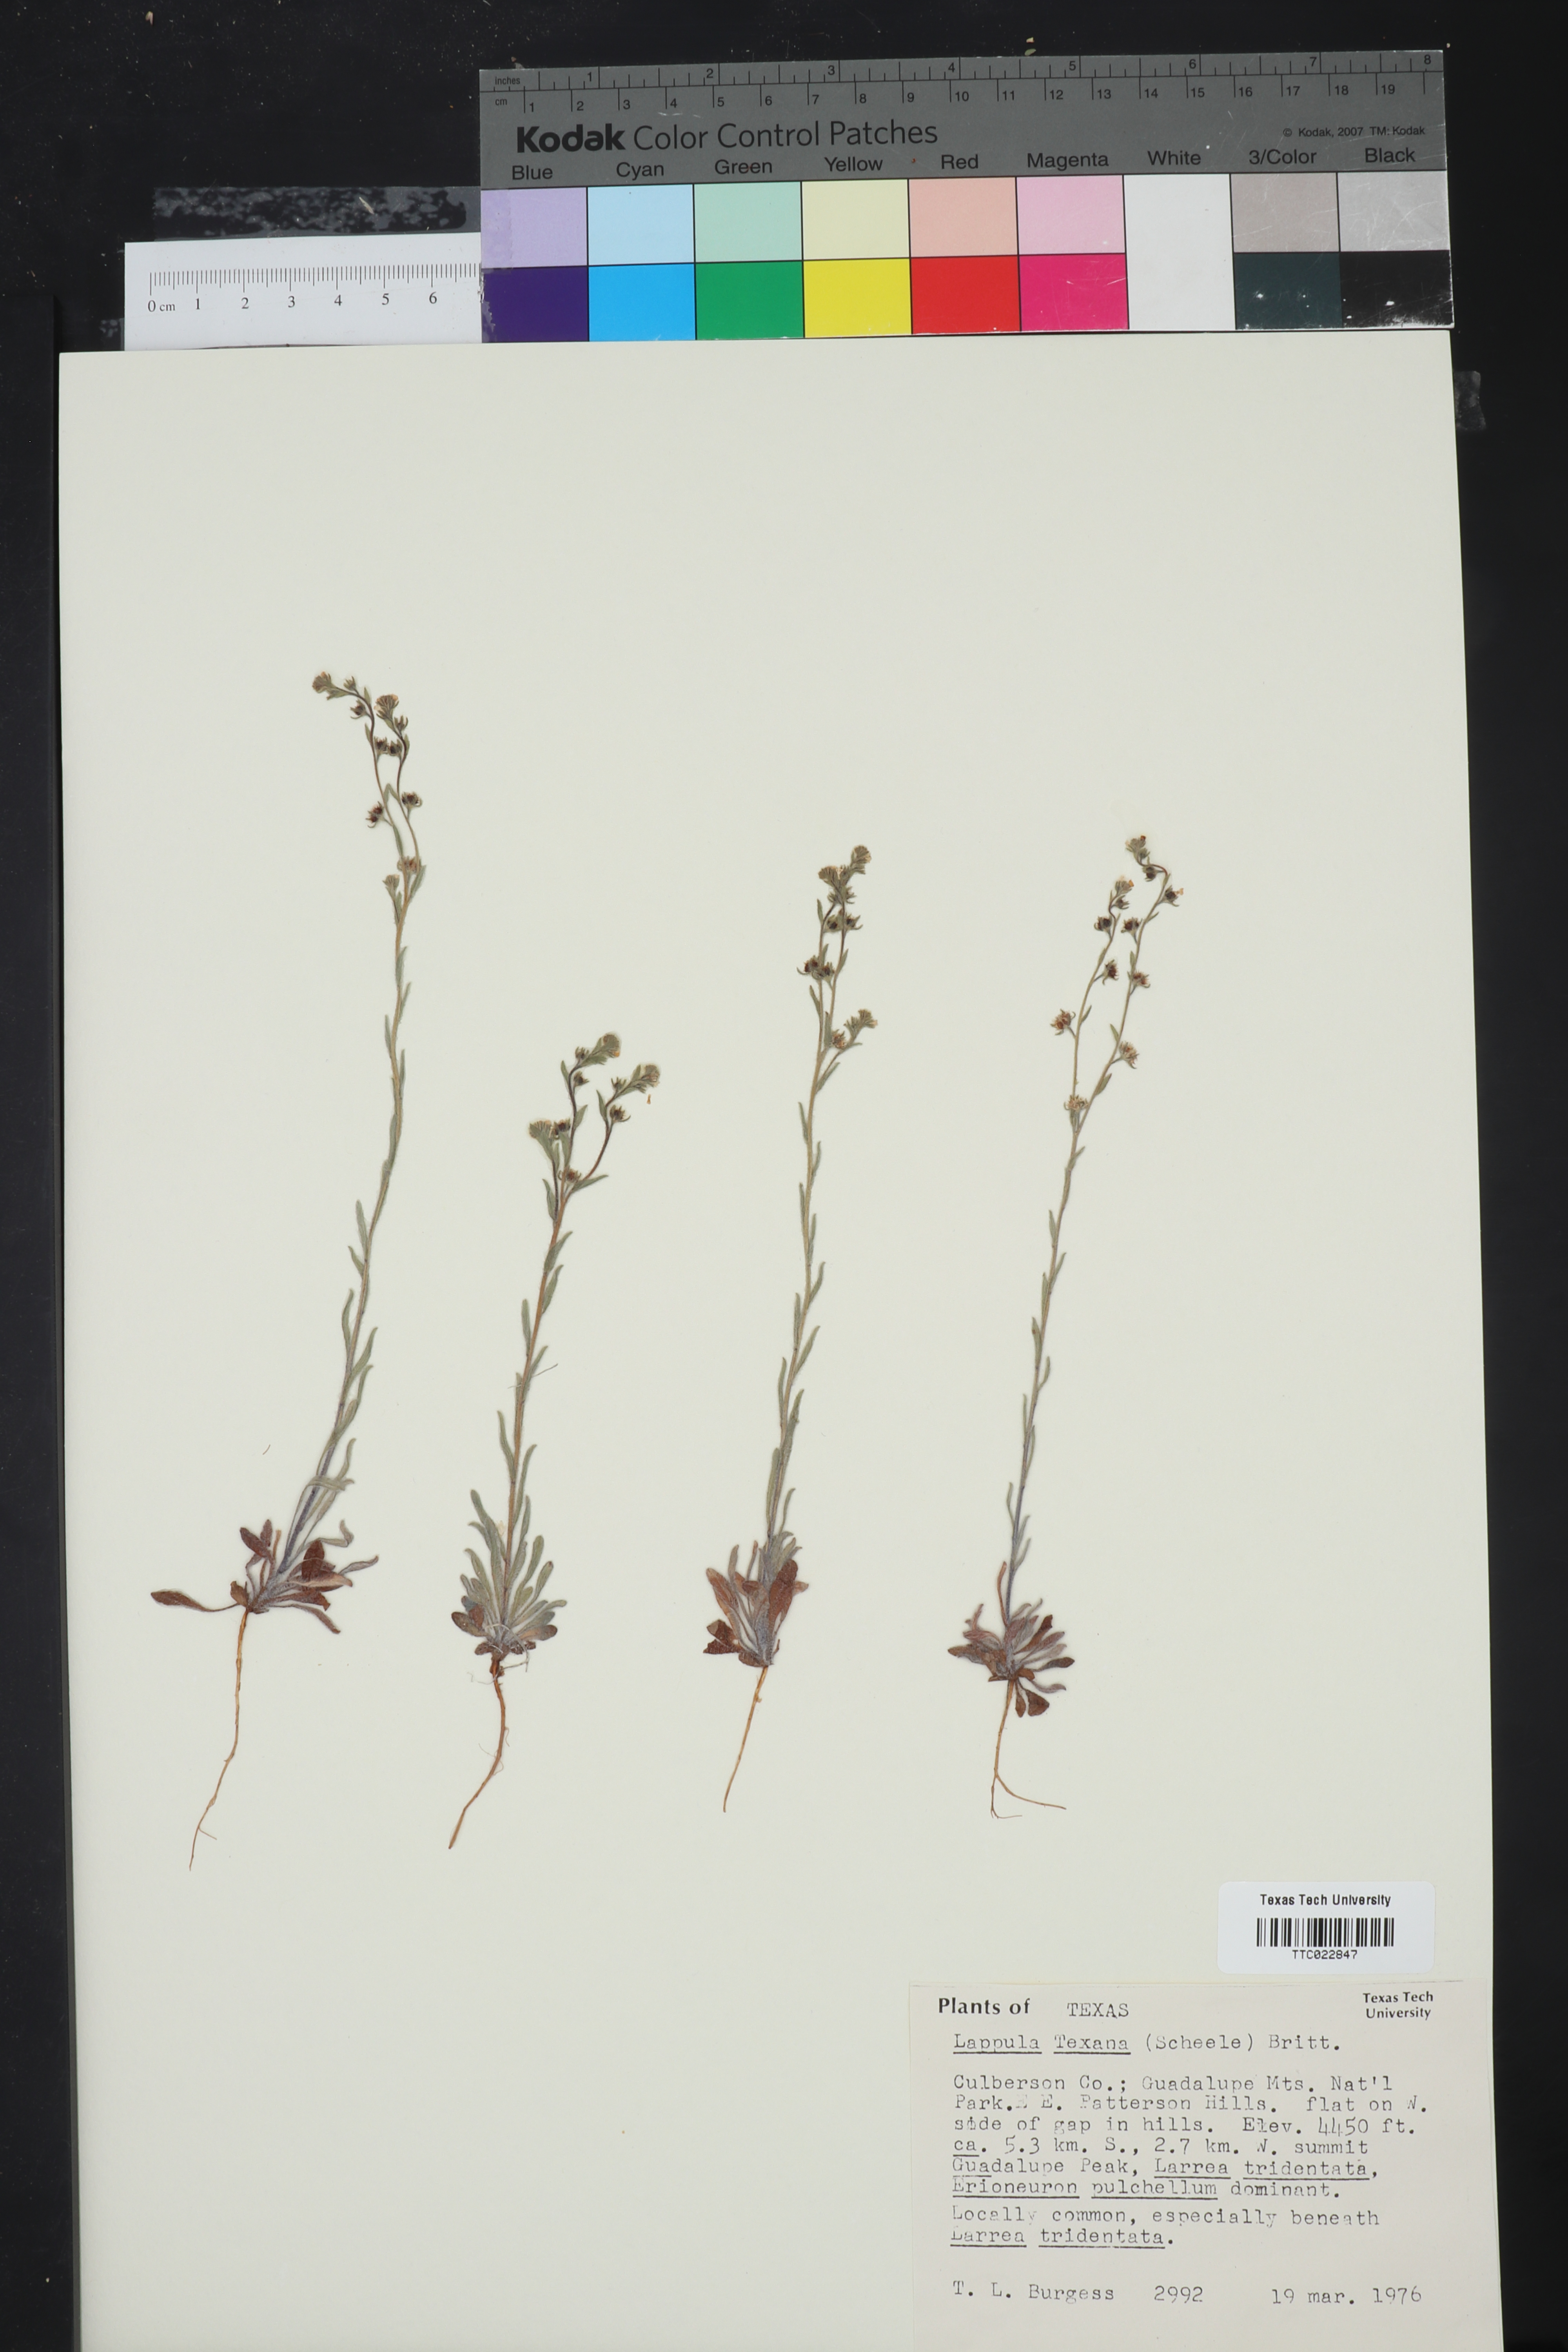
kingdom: Plantae
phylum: Tracheophyta
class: Magnoliopsida
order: Boraginales
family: Boraginaceae
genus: Lappula
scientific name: Lappula occidentalis
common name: Western stickseed
